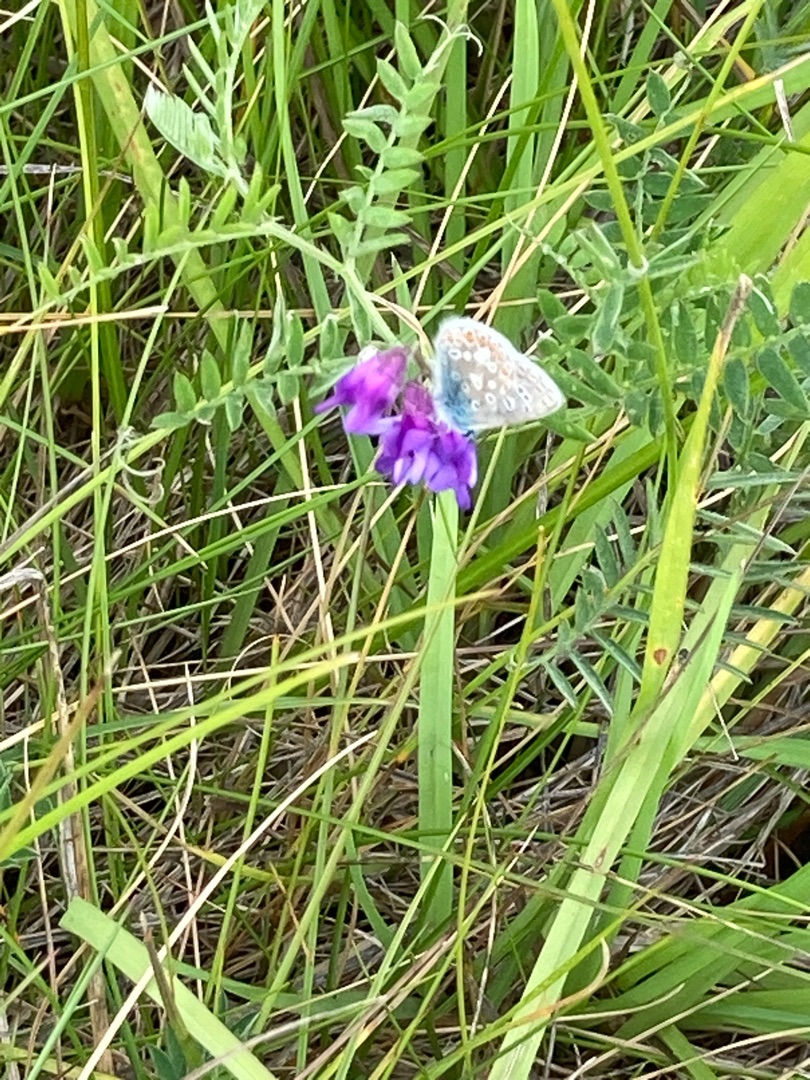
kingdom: Animalia
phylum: Arthropoda
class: Insecta
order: Lepidoptera
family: Lycaenidae
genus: Polyommatus
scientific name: Polyommatus icarus
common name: Almindelig blåfugl
